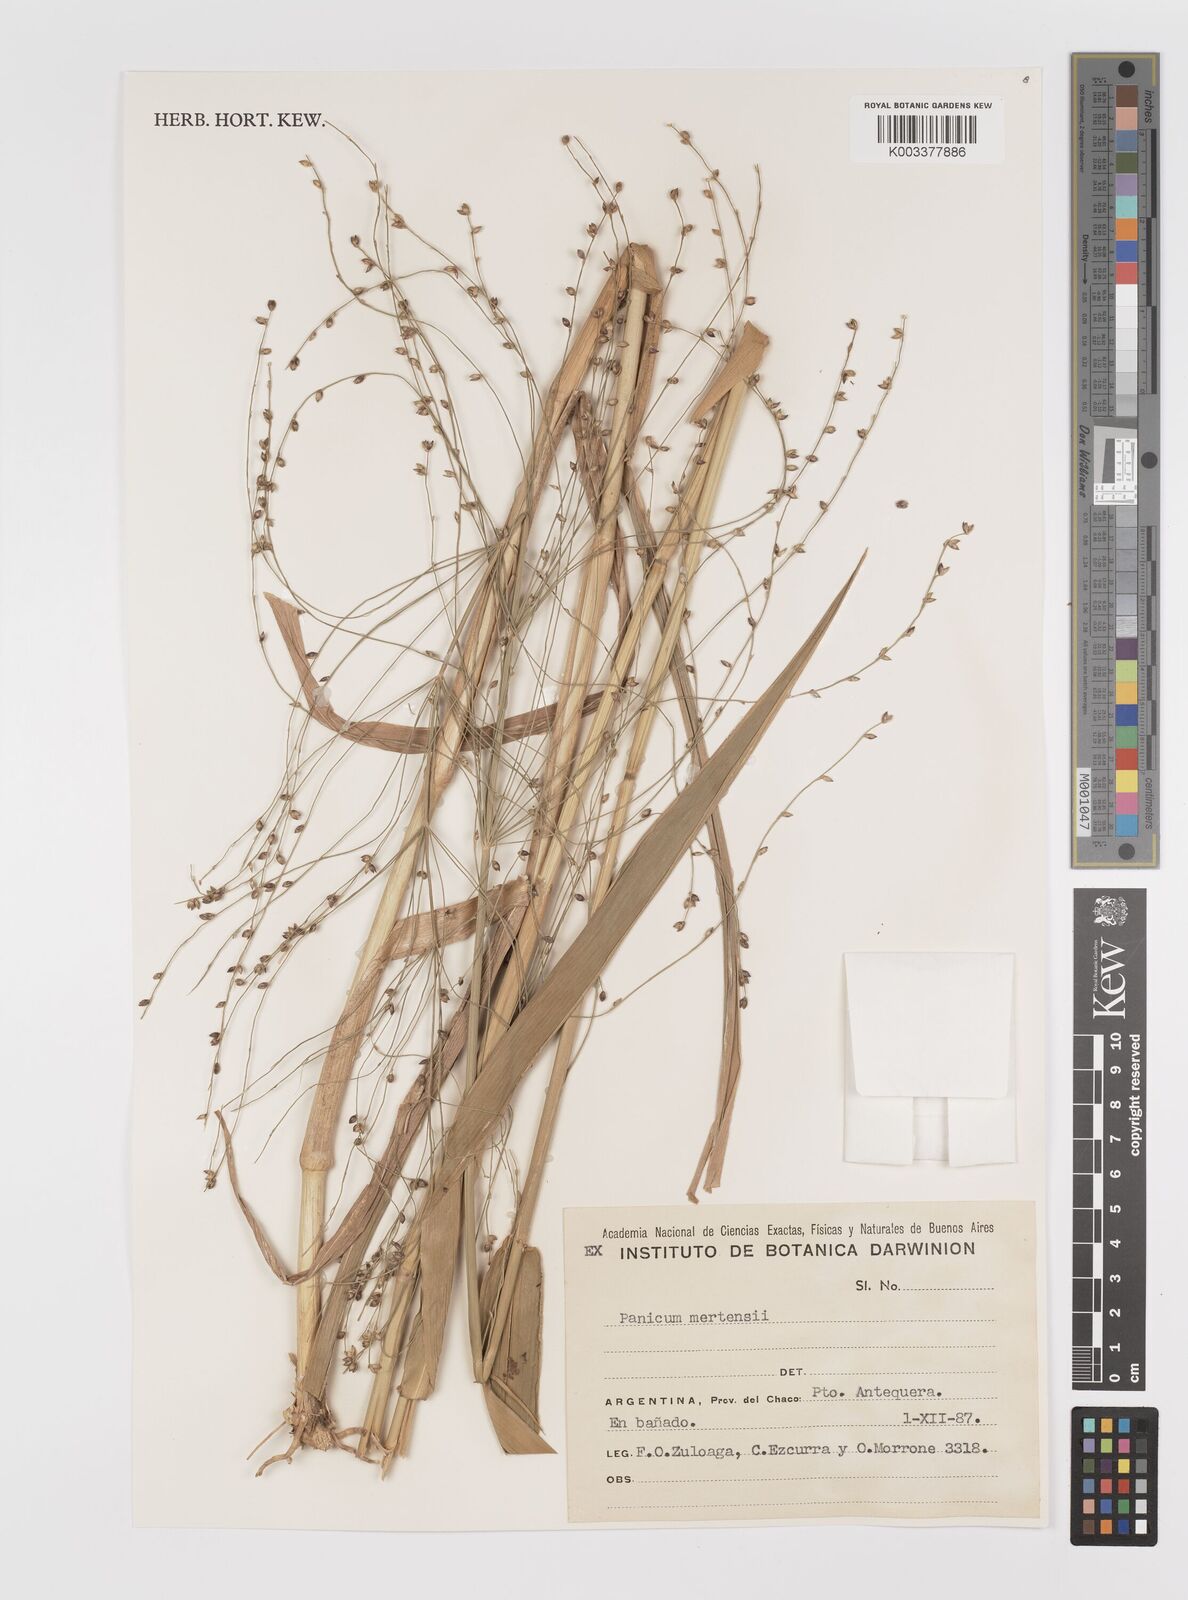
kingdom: Plantae
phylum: Tracheophyta
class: Liliopsida
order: Poales
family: Poaceae
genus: Stephostachys
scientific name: Stephostachys mertensii
